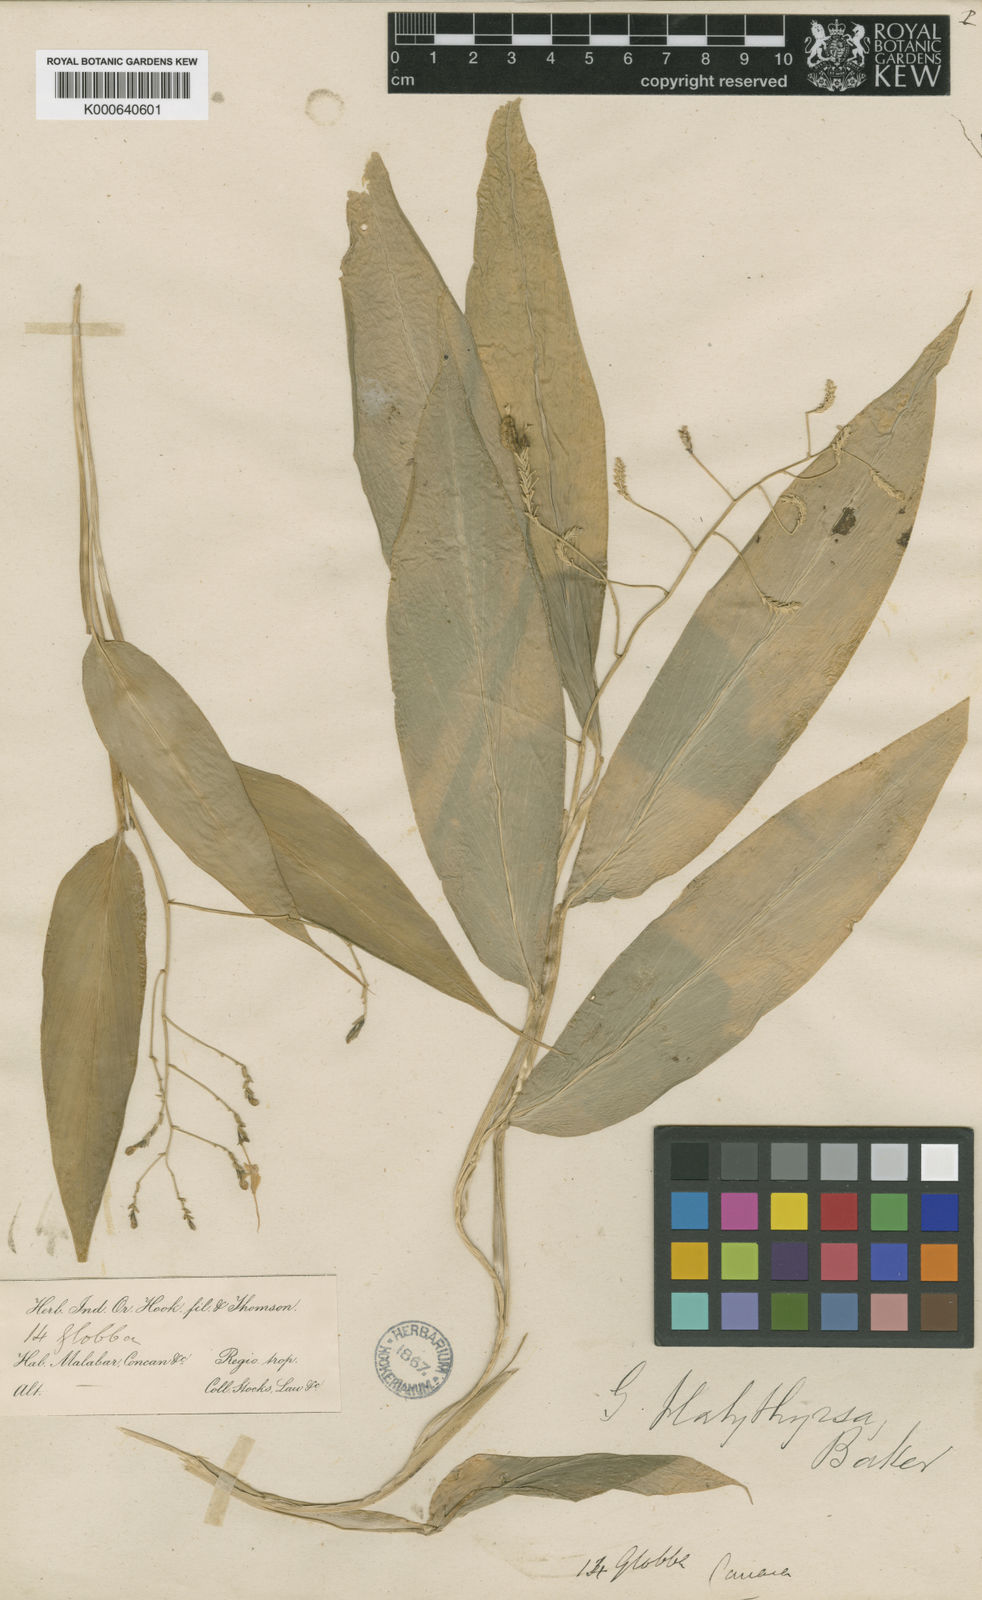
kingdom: Plantae
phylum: Tracheophyta
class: Liliopsida
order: Zingiberales
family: Zingiberaceae
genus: Globba
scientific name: Globba platystachya
